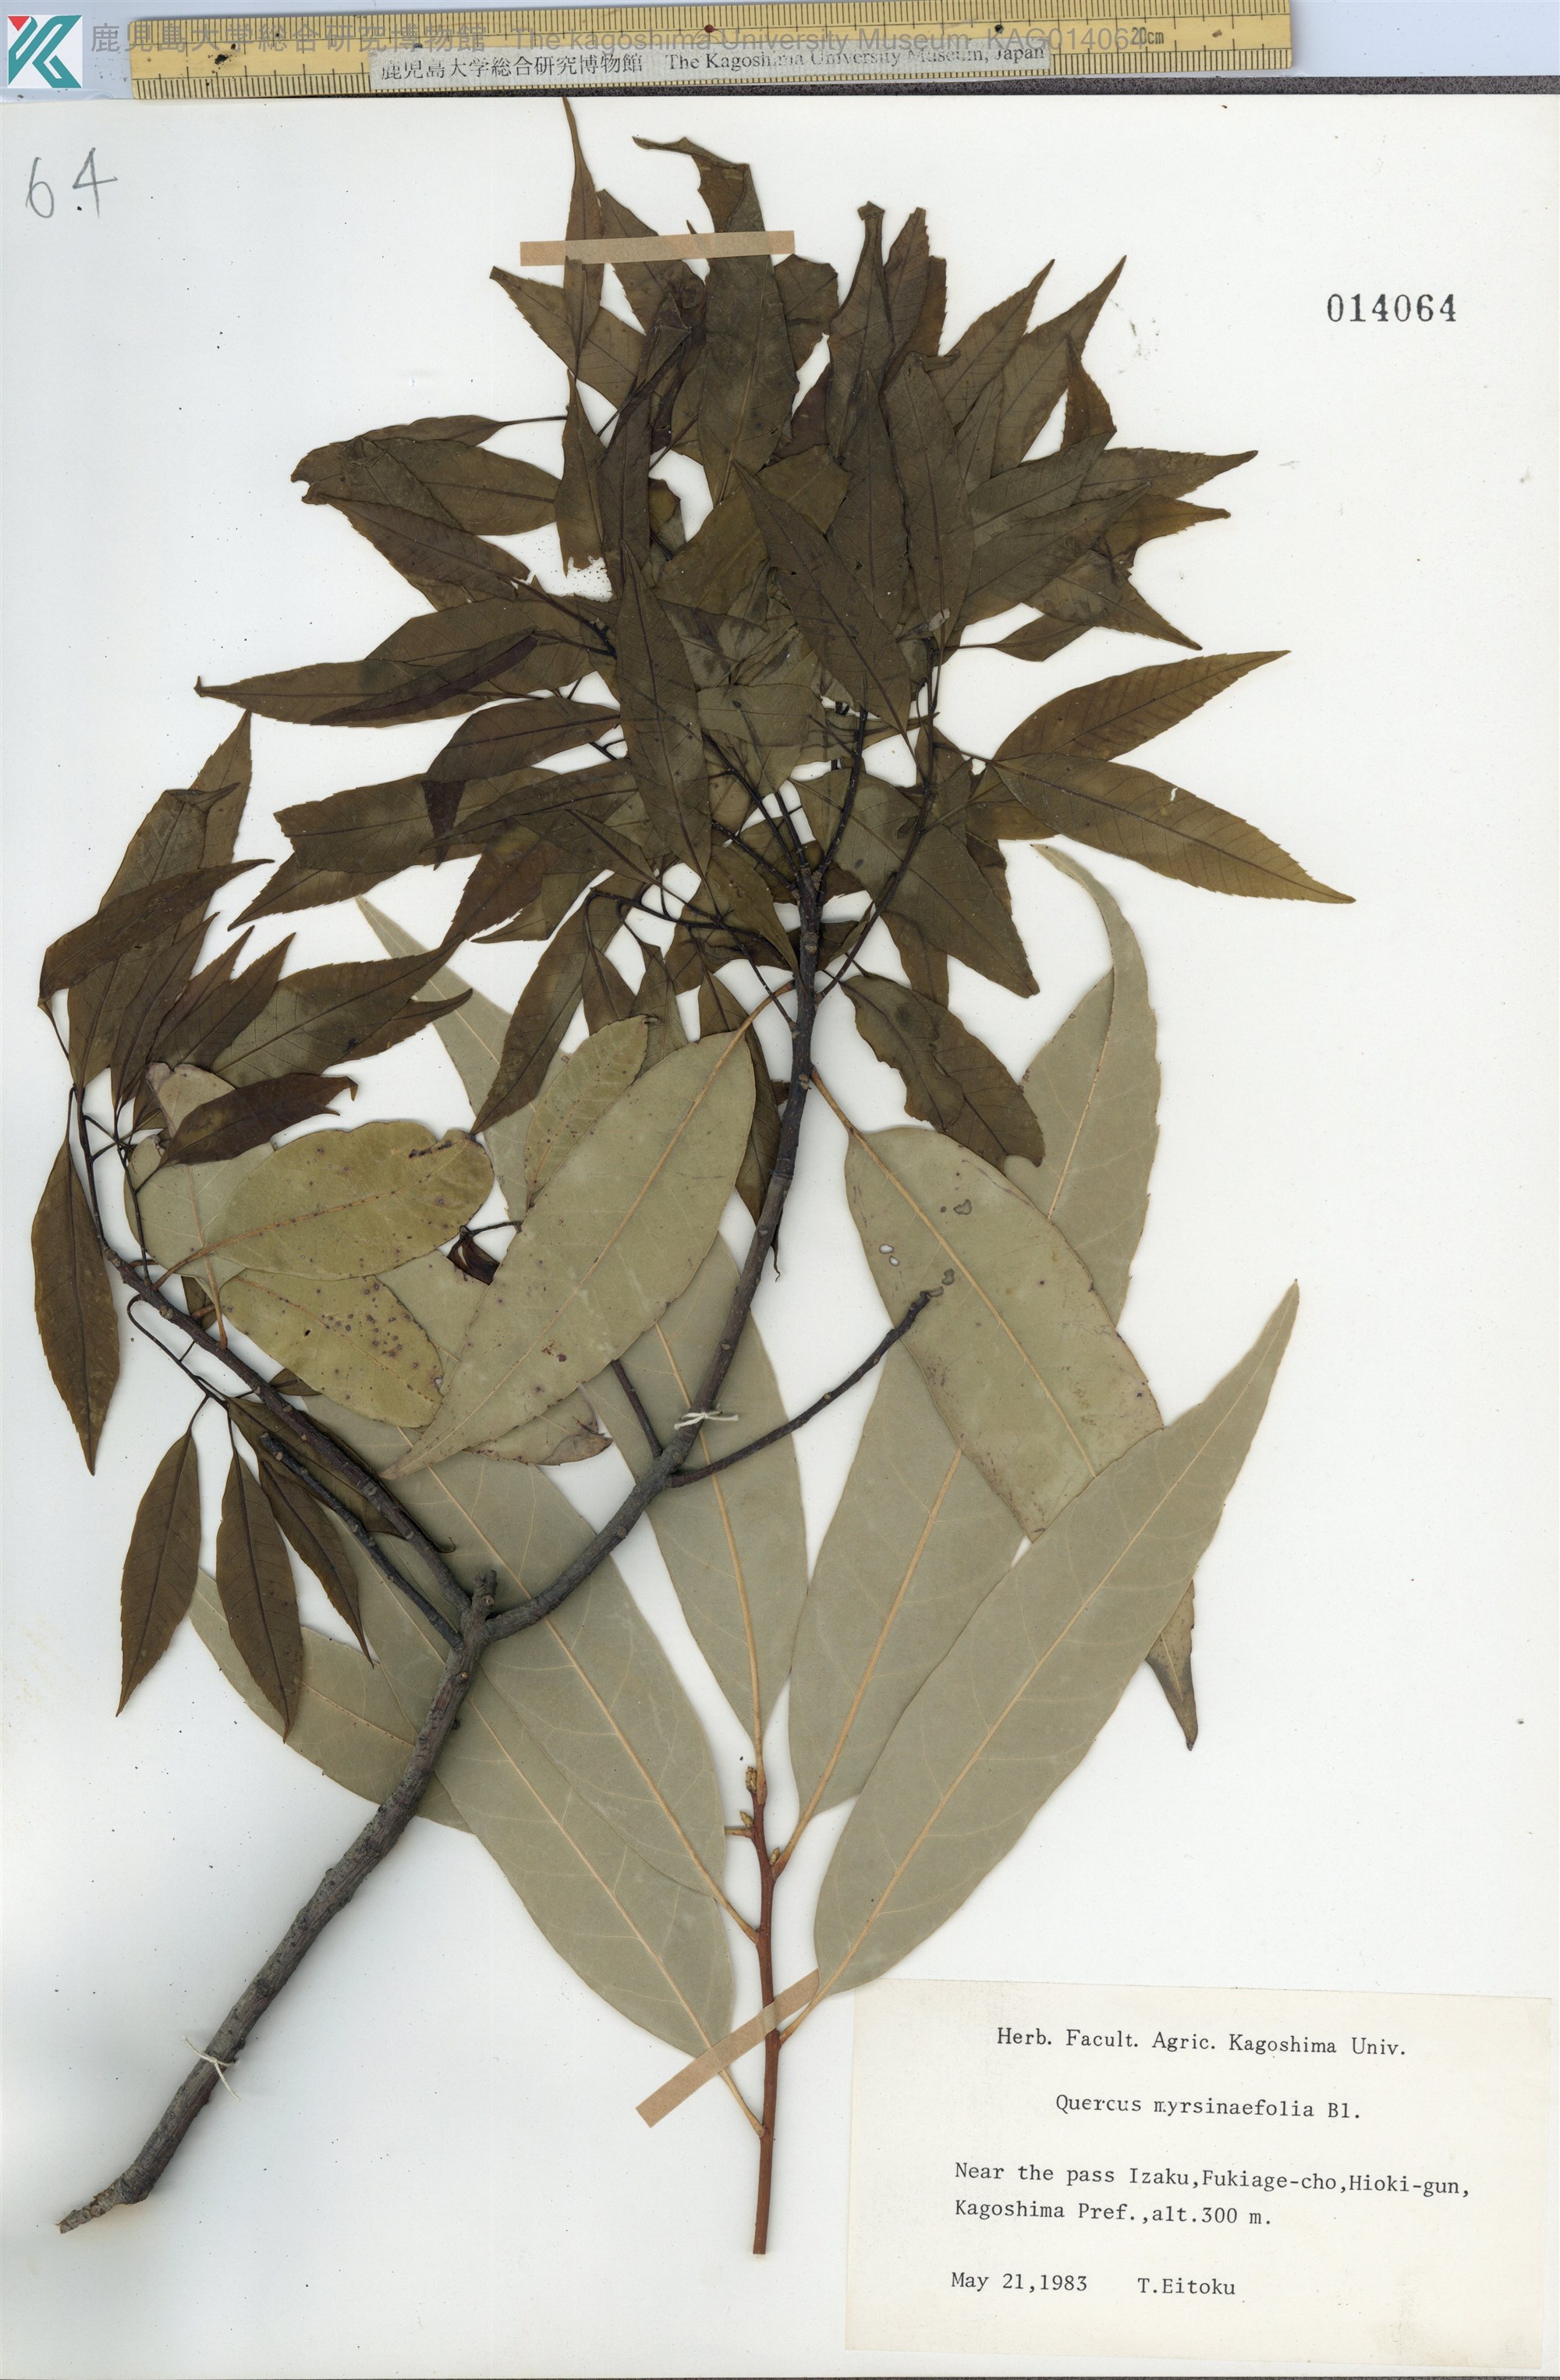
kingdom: Plantae
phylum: Tracheophyta
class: Magnoliopsida
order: Fagales
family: Fagaceae
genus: Quercus
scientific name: Quercus myrsinaefolia
